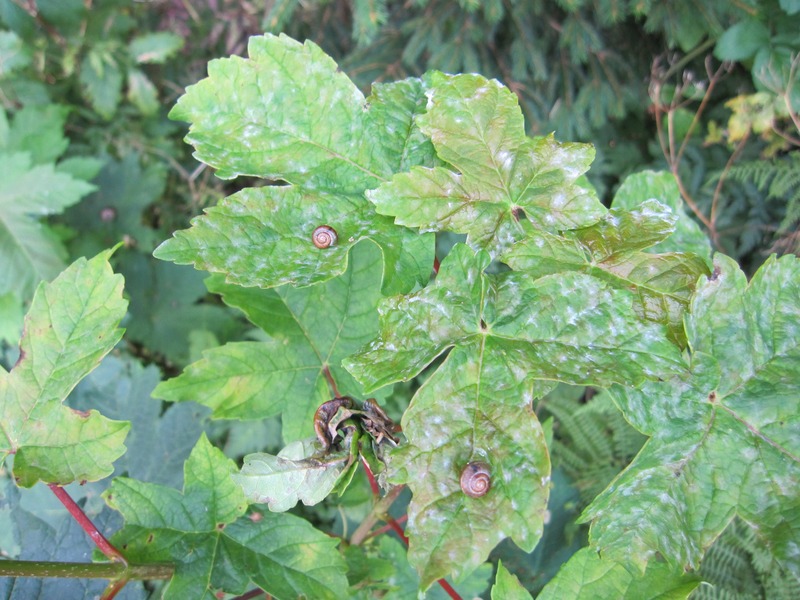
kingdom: Fungi
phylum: Ascomycota
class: Leotiomycetes
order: Helotiales
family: Erysiphaceae
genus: Sawadaea
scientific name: Sawadaea bicornis
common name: Maple mildew
